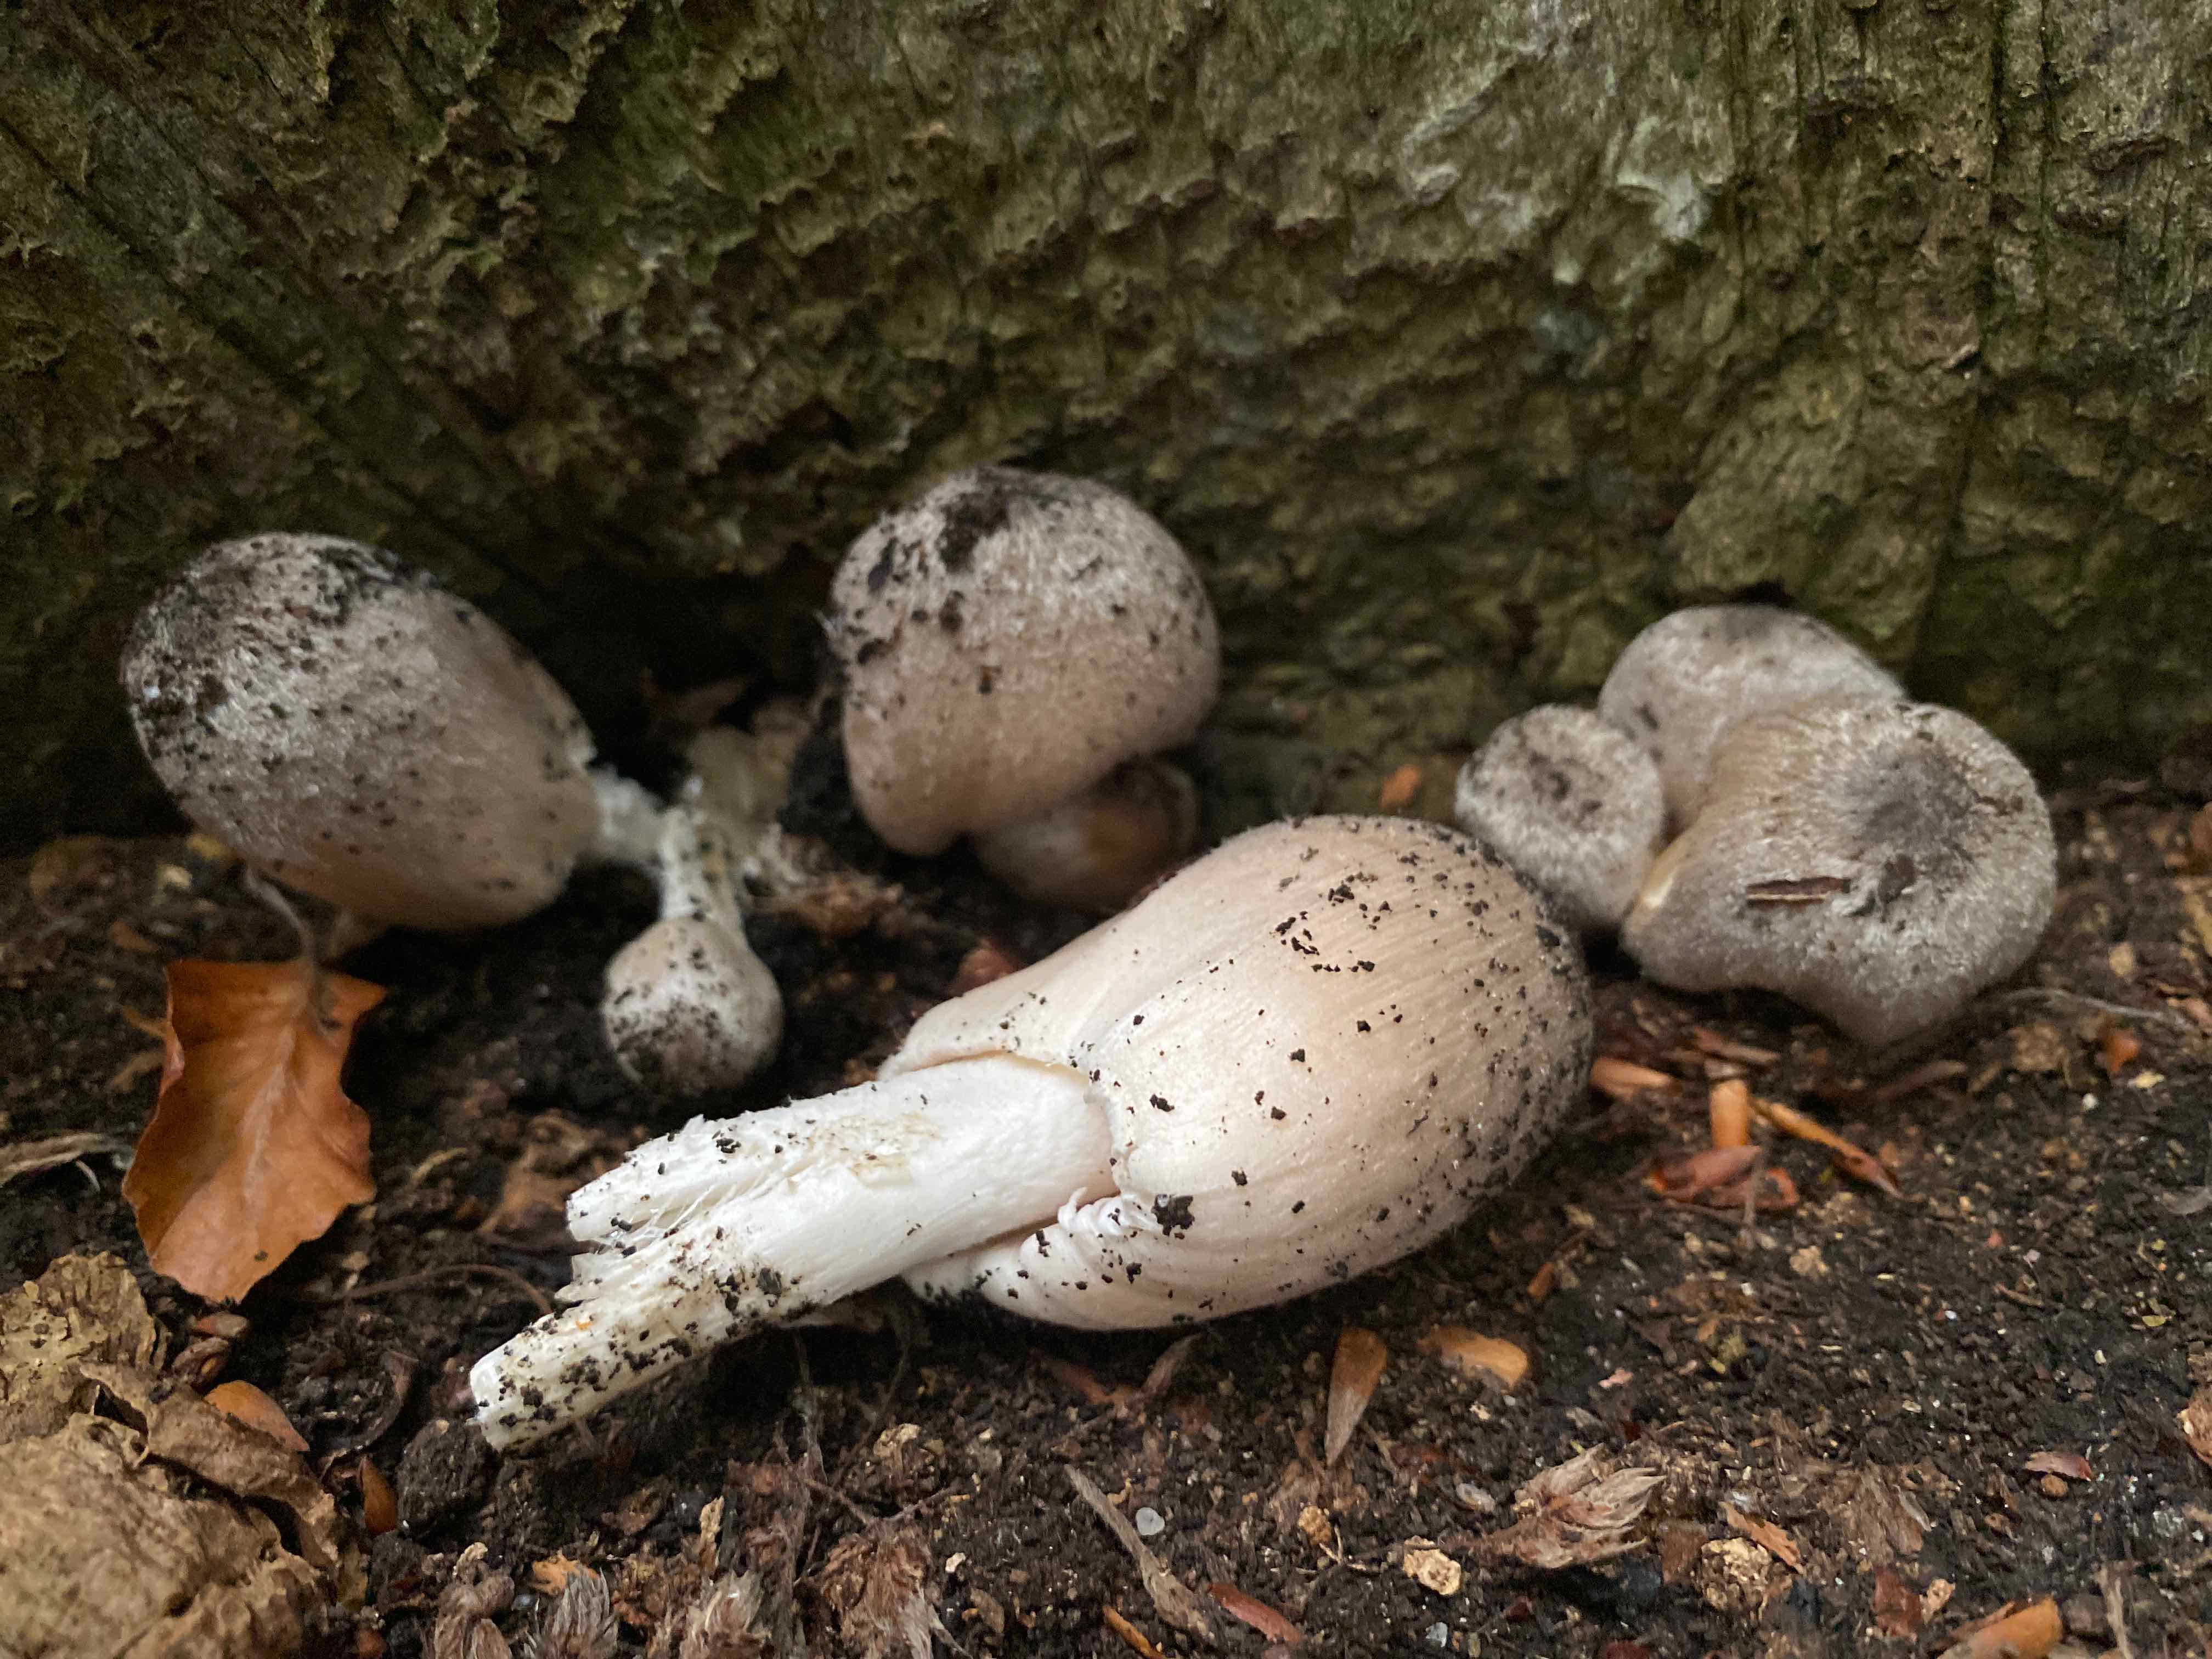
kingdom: Fungi
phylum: Basidiomycota
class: Agaricomycetes
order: Agaricales
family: Psathyrellaceae
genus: Coprinopsis
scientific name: Coprinopsis insignis
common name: stor blækhat
